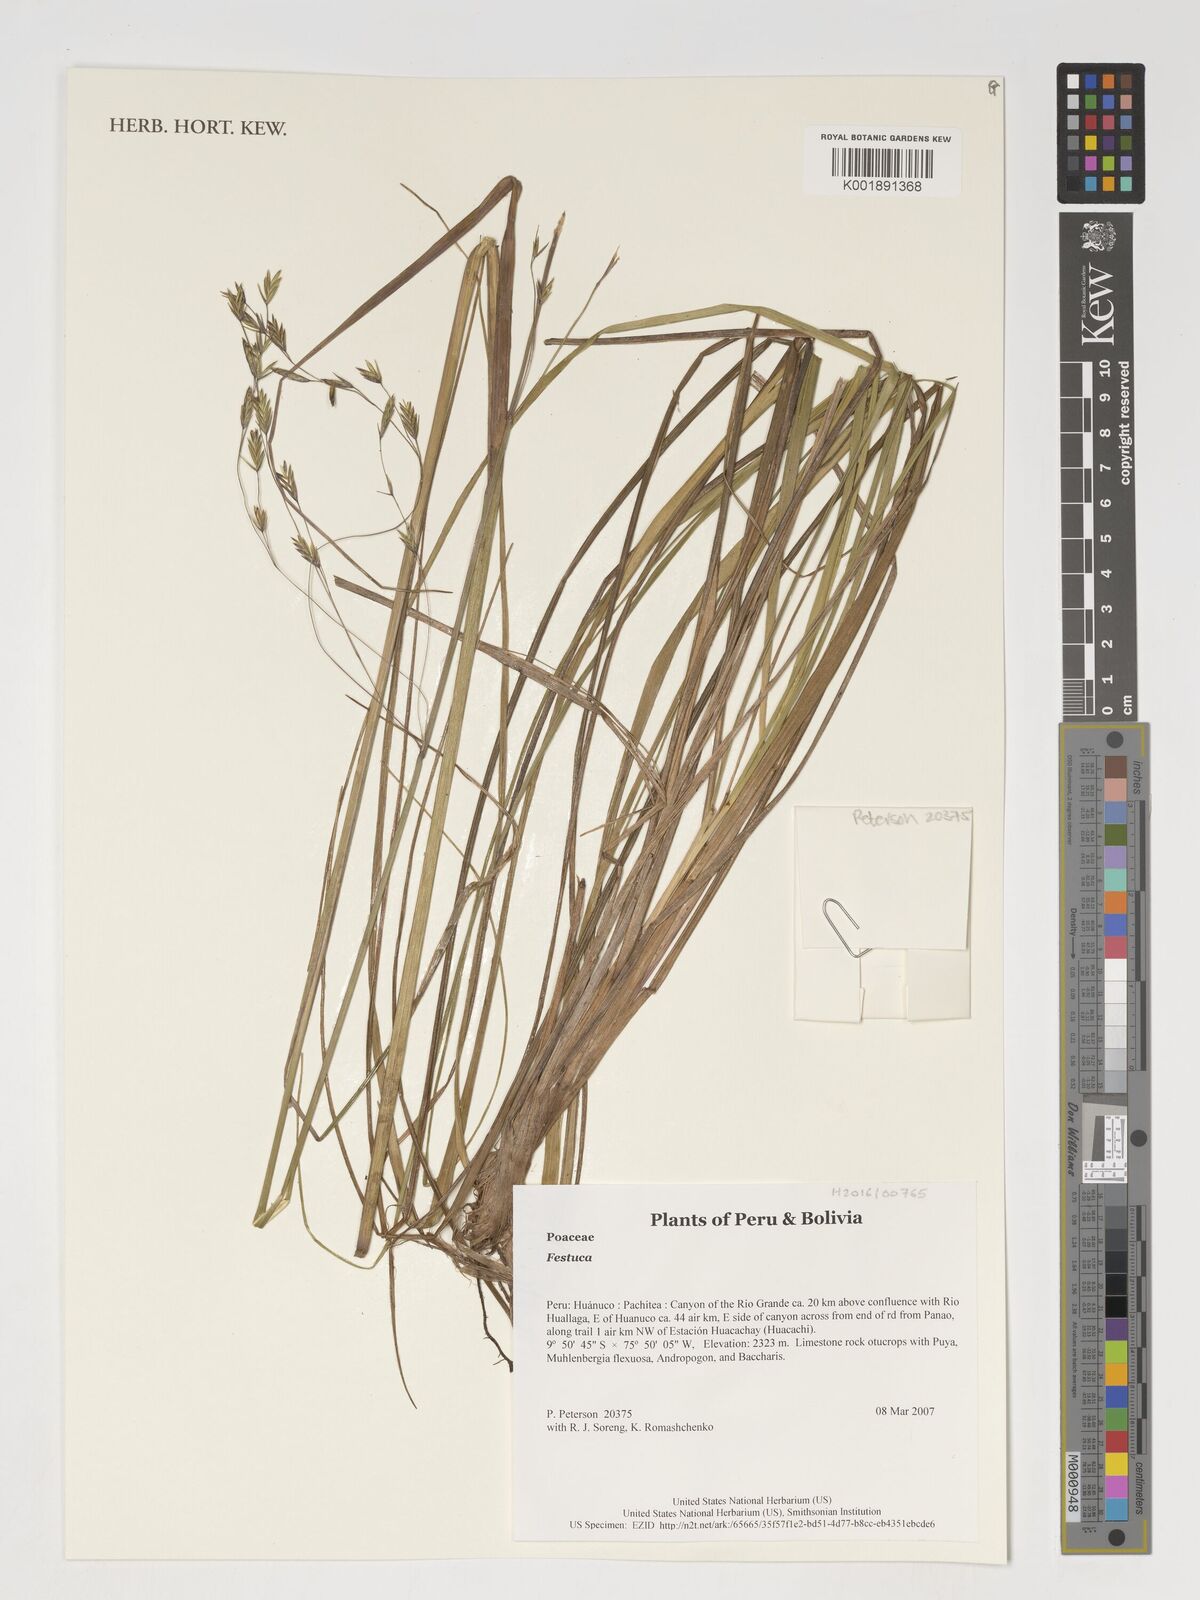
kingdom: Plantae
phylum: Tracheophyta
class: Liliopsida
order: Poales
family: Poaceae
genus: Festuca
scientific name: Festuca
